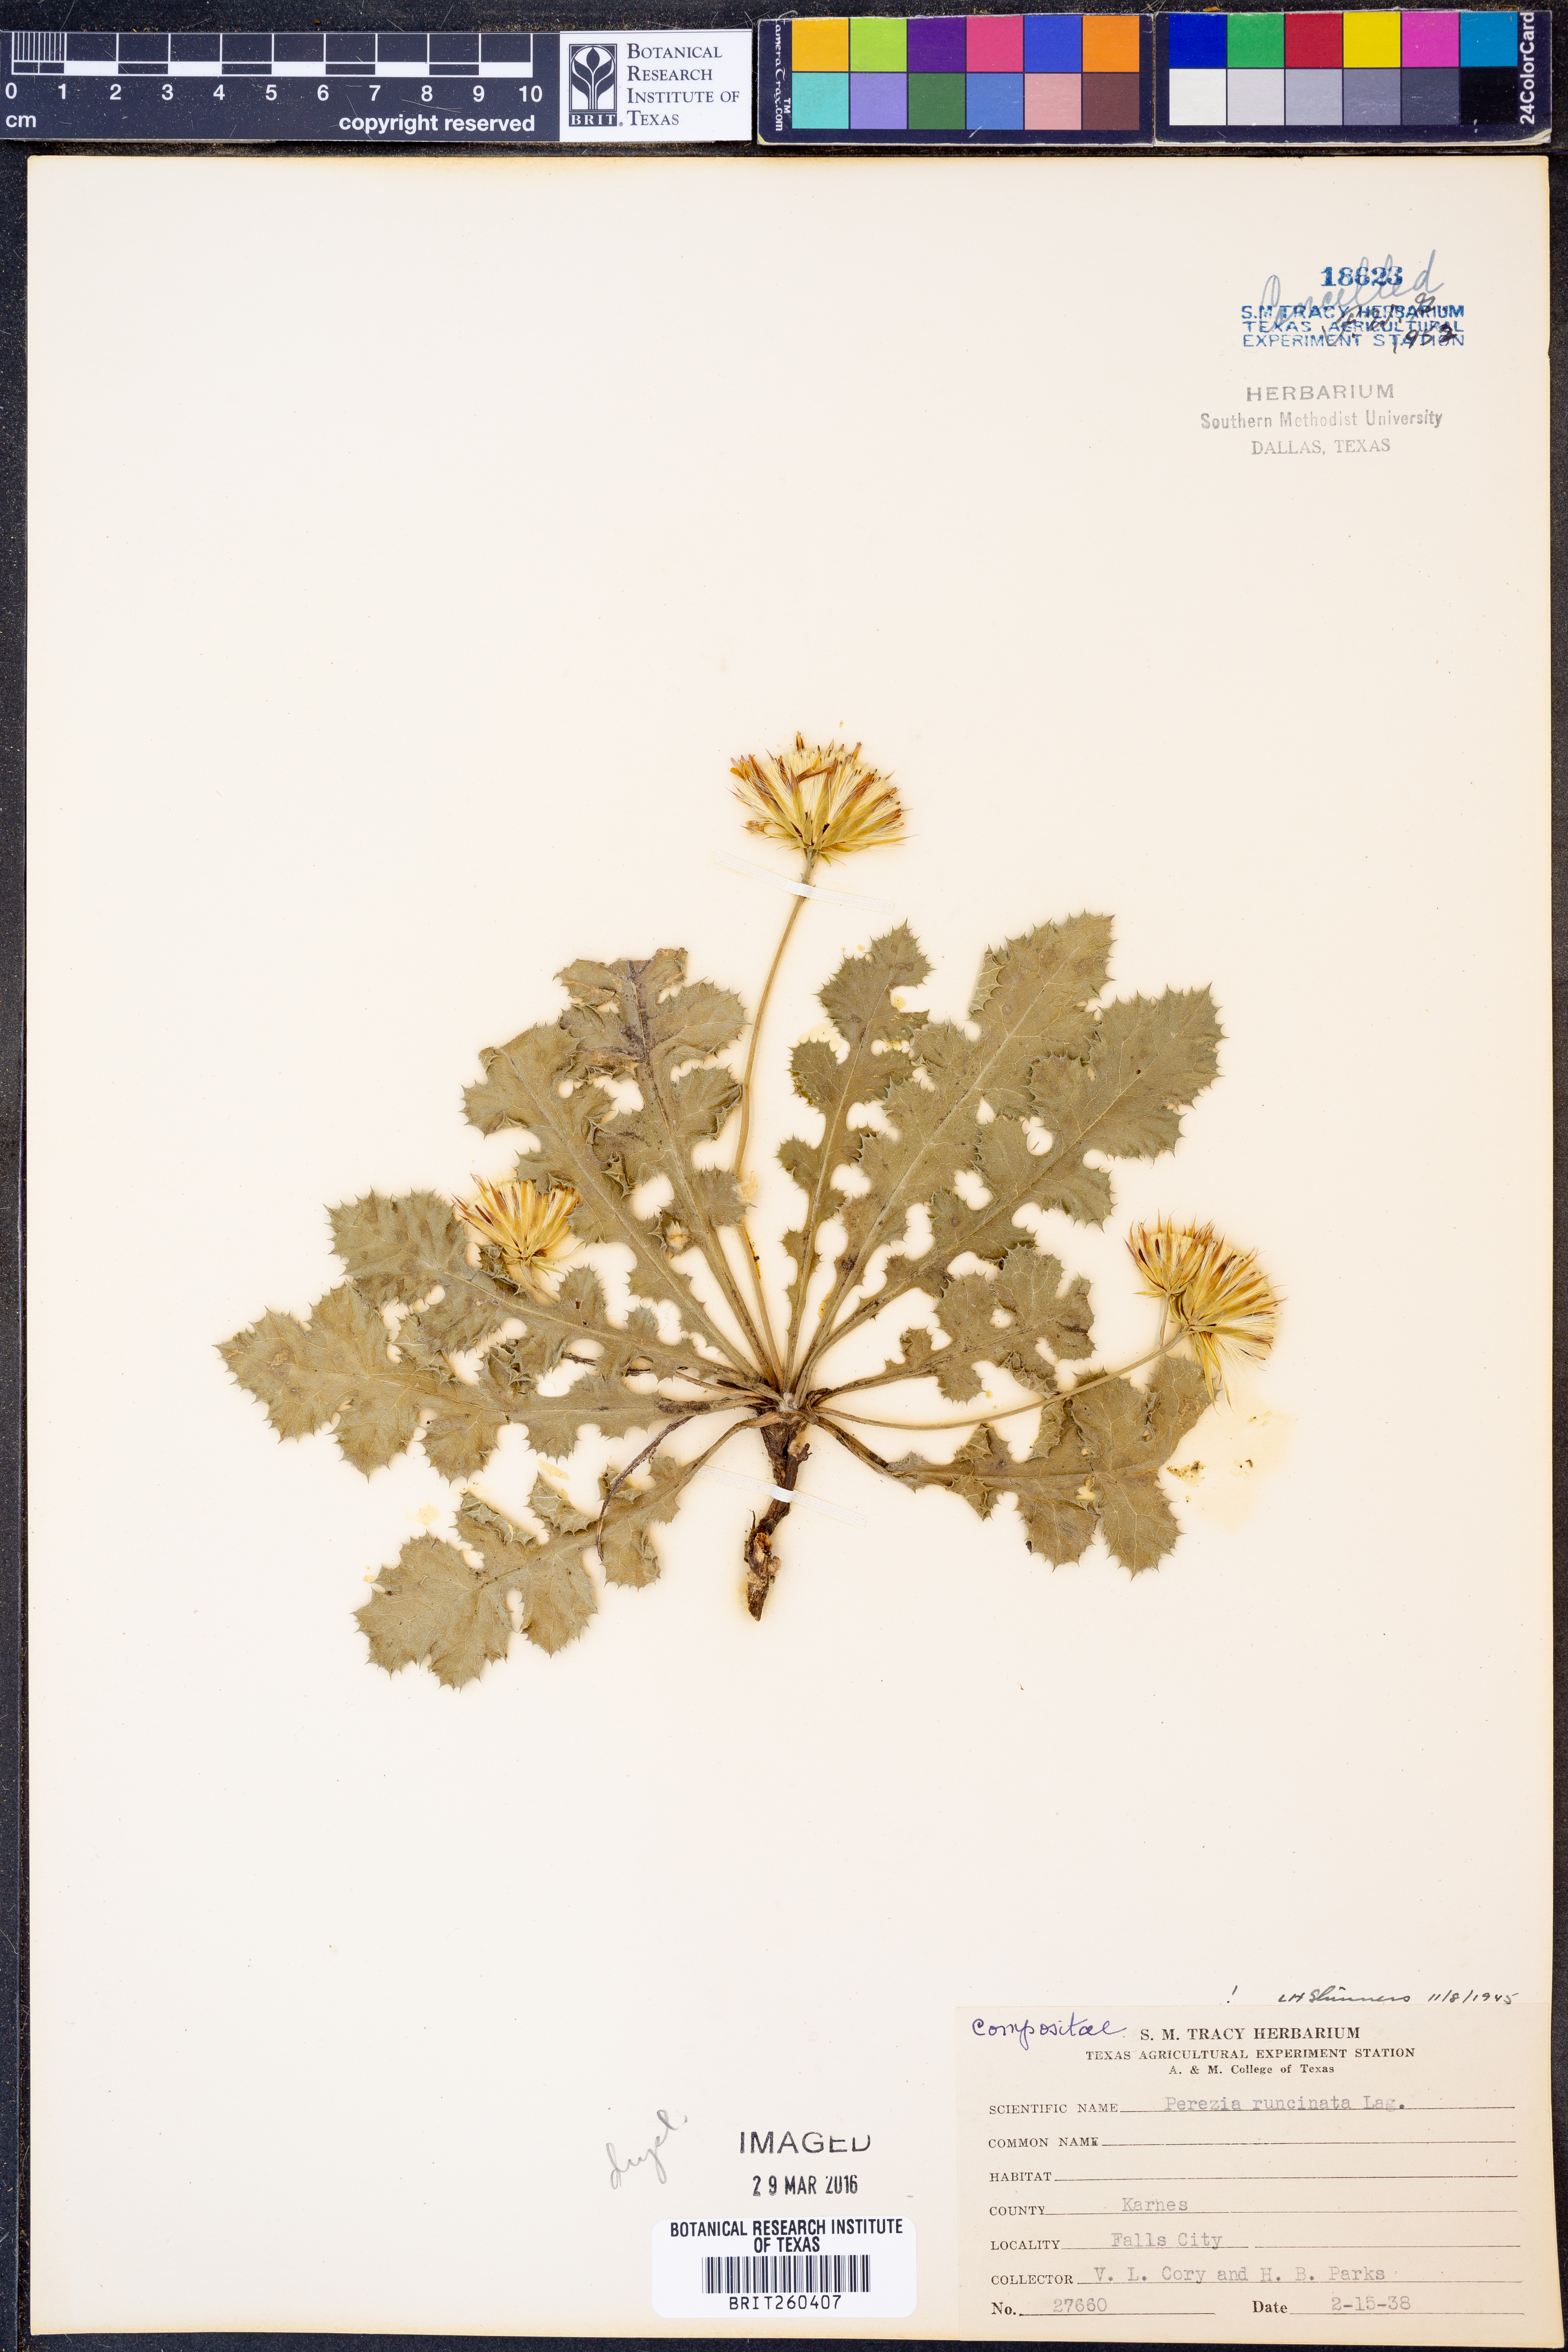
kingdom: Plantae
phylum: Tracheophyta
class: Magnoliopsida
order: Asterales
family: Asteraceae
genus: Acourtia
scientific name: Acourtia runcinata
